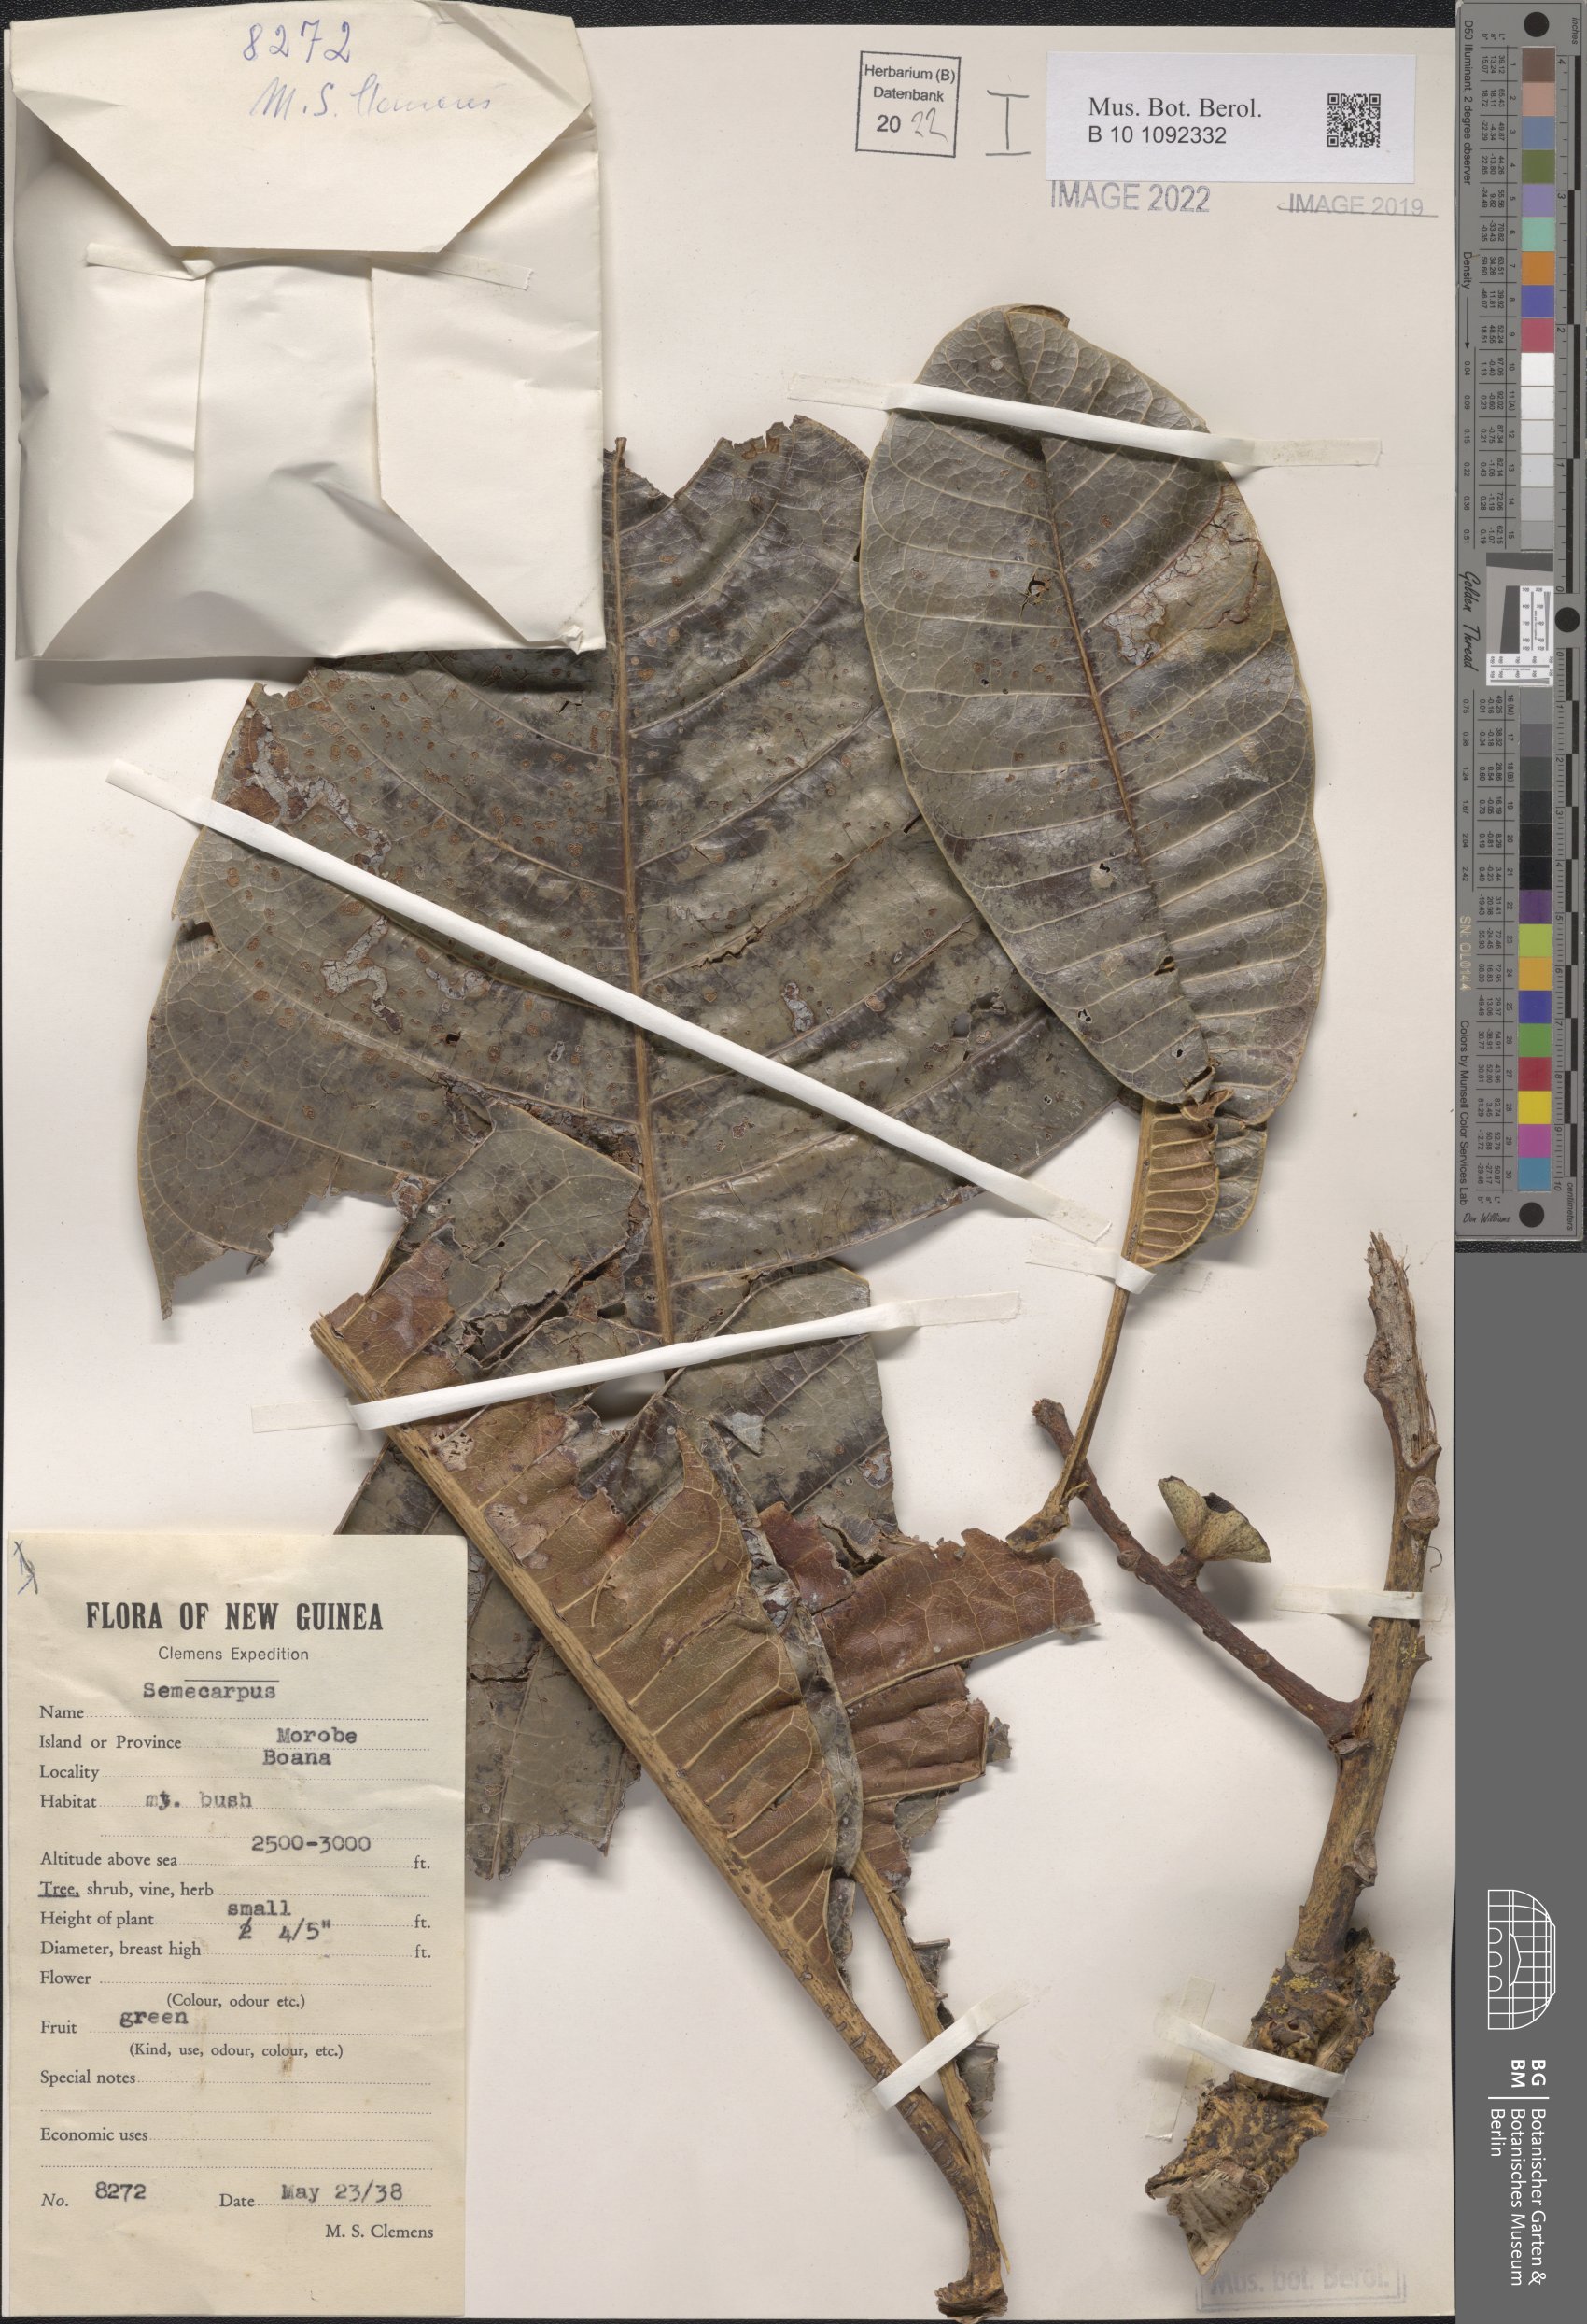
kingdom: Plantae
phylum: Tracheophyta
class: Magnoliopsida
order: Sapindales
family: Anacardiaceae
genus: Semecarpus
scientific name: Semecarpus
